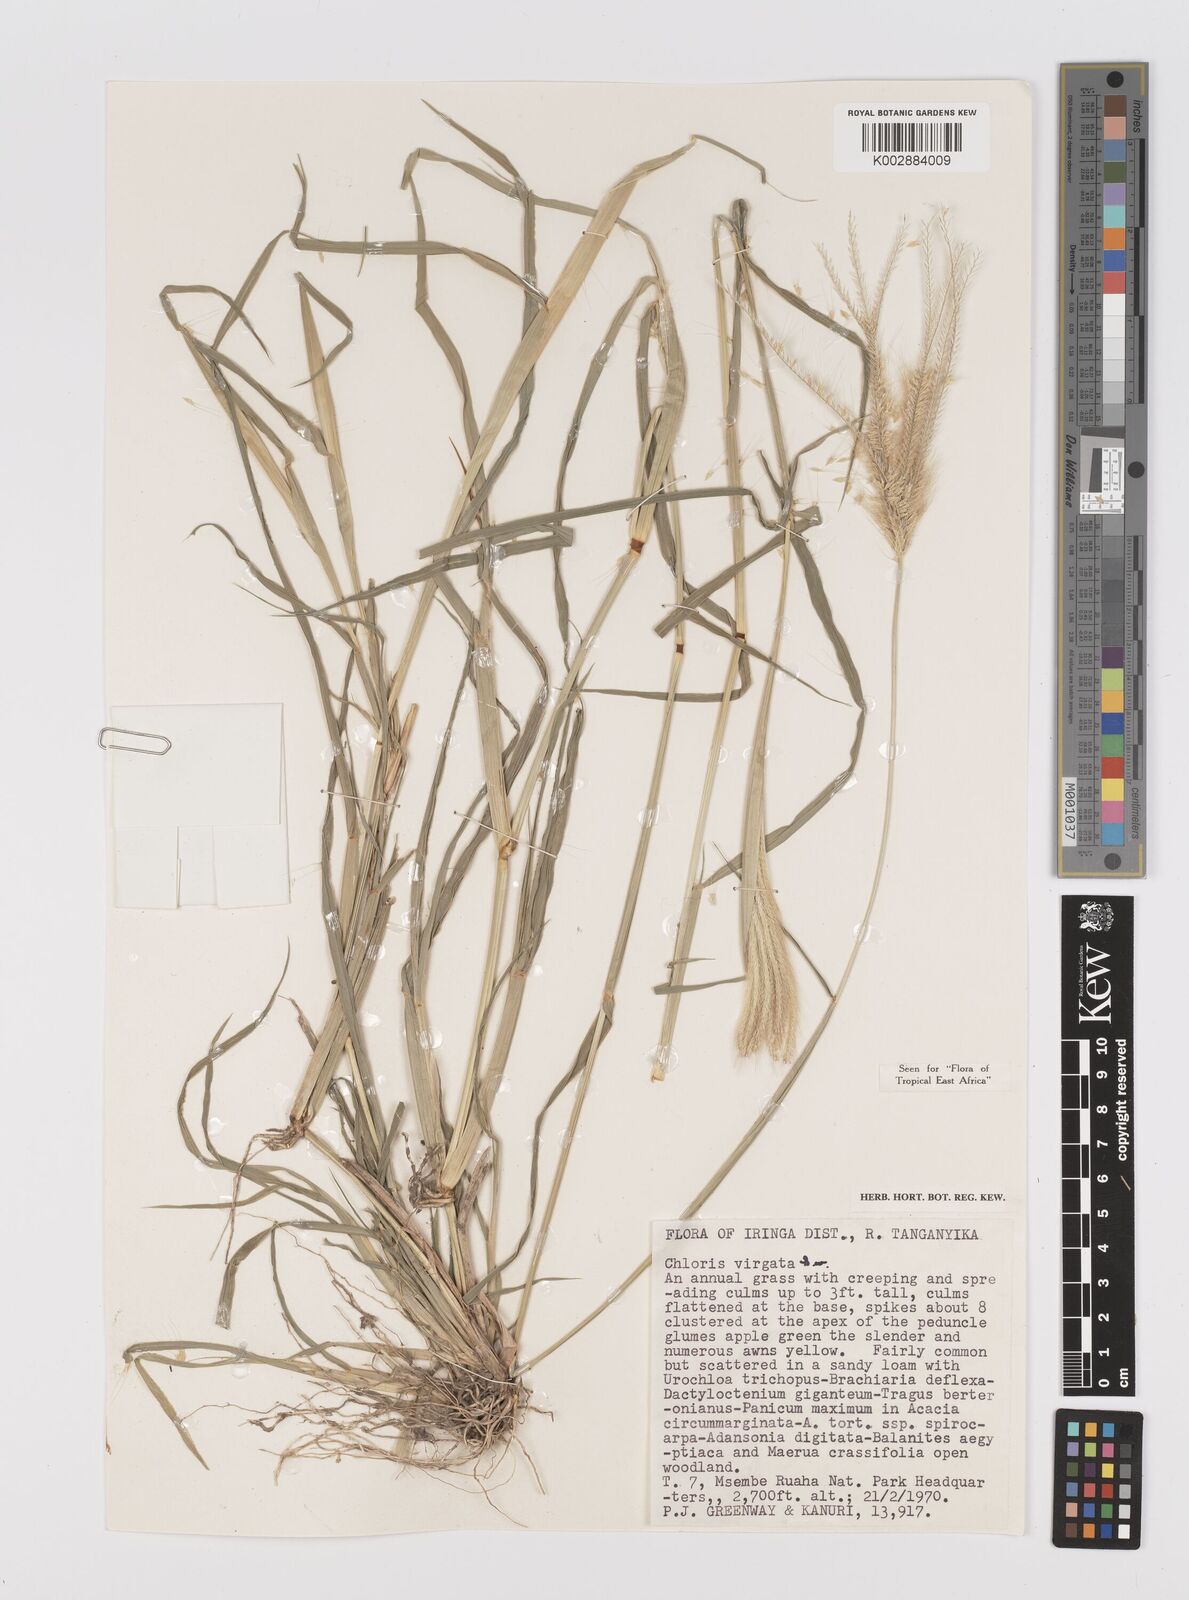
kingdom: Plantae
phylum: Tracheophyta
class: Liliopsida
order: Poales
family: Poaceae
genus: Chloris
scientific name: Chloris virgata
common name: Feathery rhodes-grass
